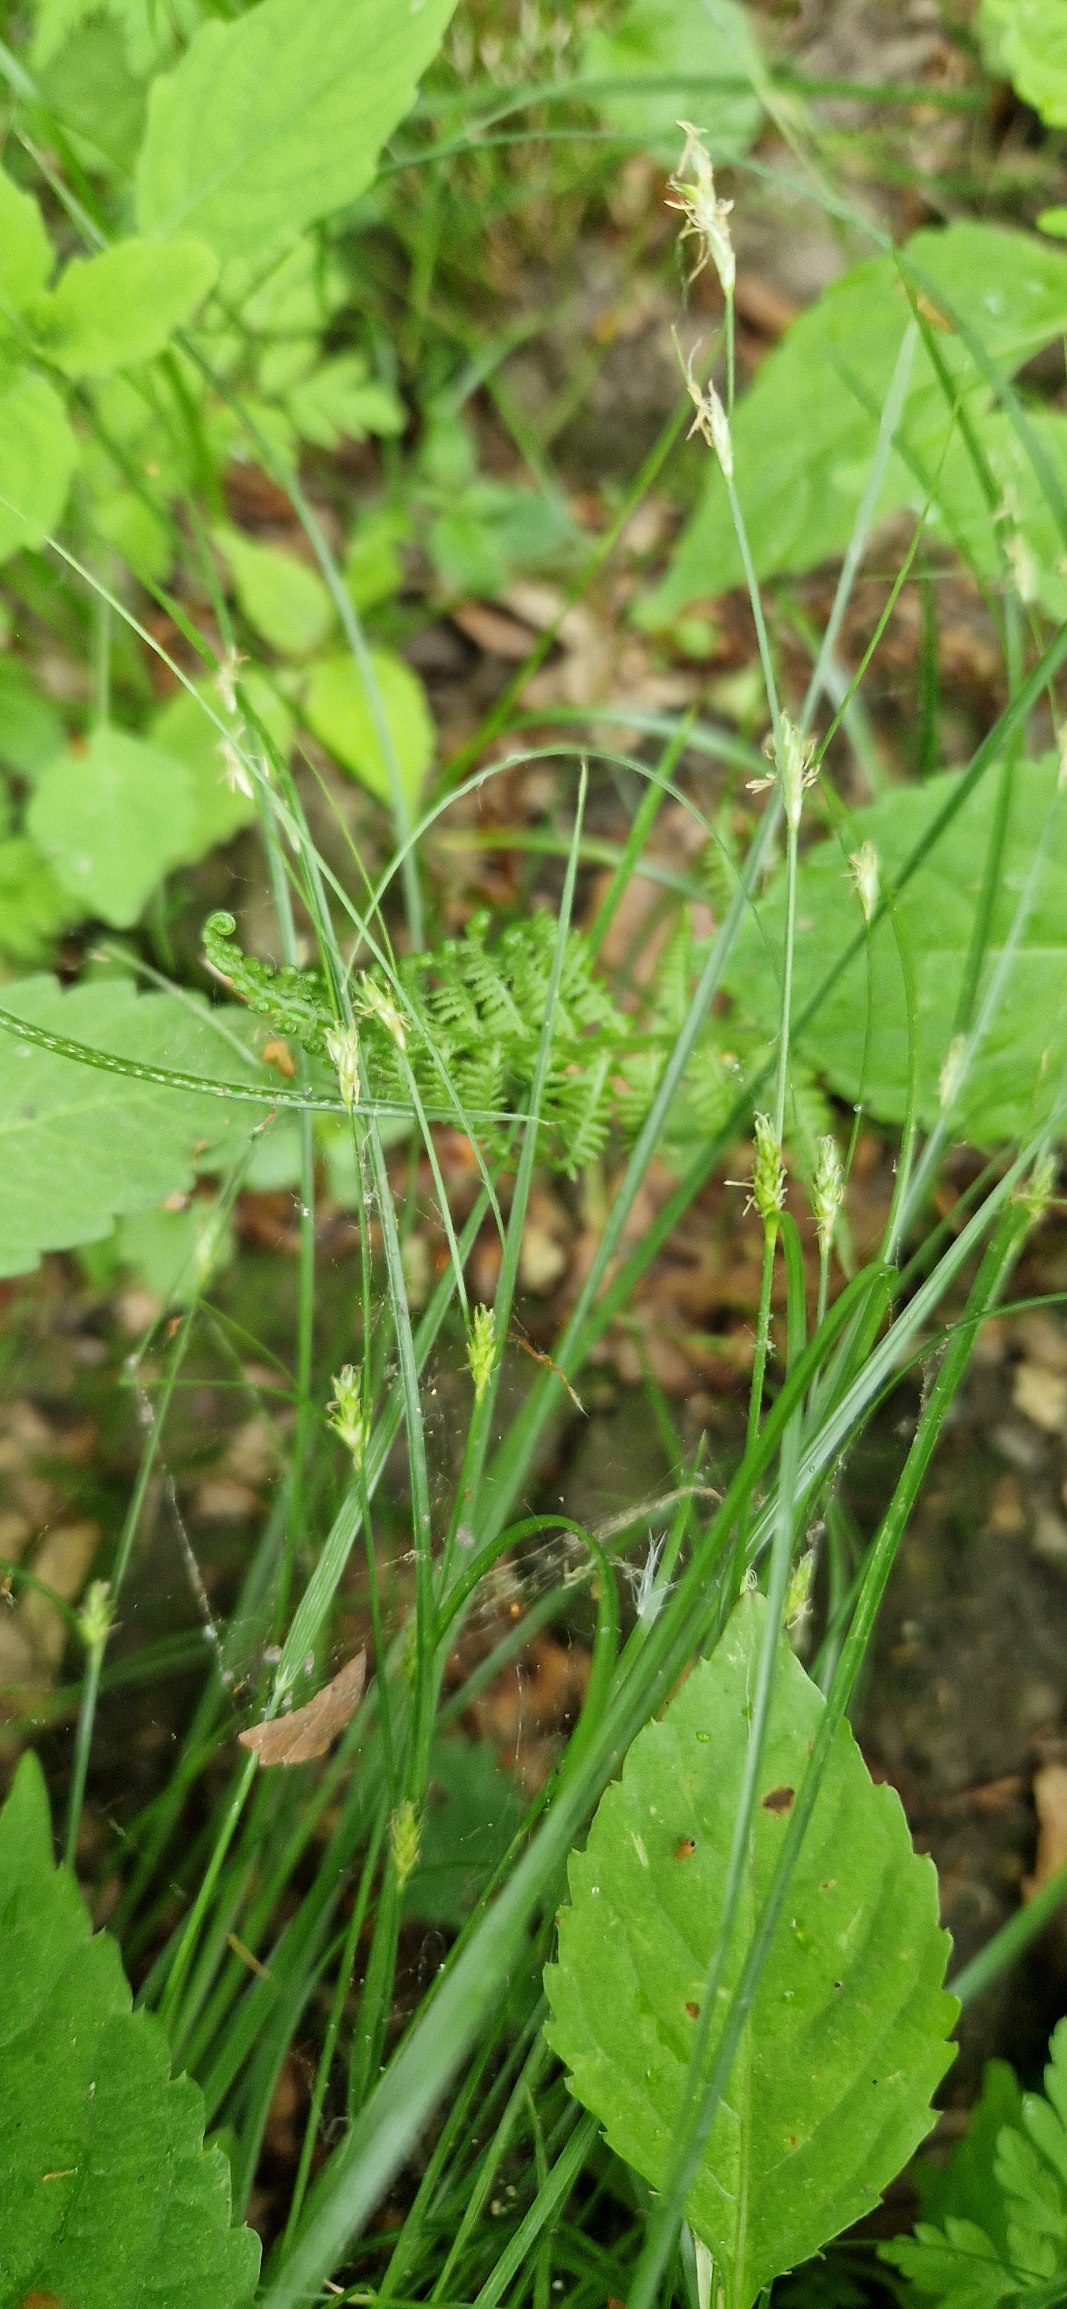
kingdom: Plantae
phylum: Tracheophyta
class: Liliopsida
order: Poales
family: Cyperaceae
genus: Carex
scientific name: Carex remota
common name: Akselblomstret star
